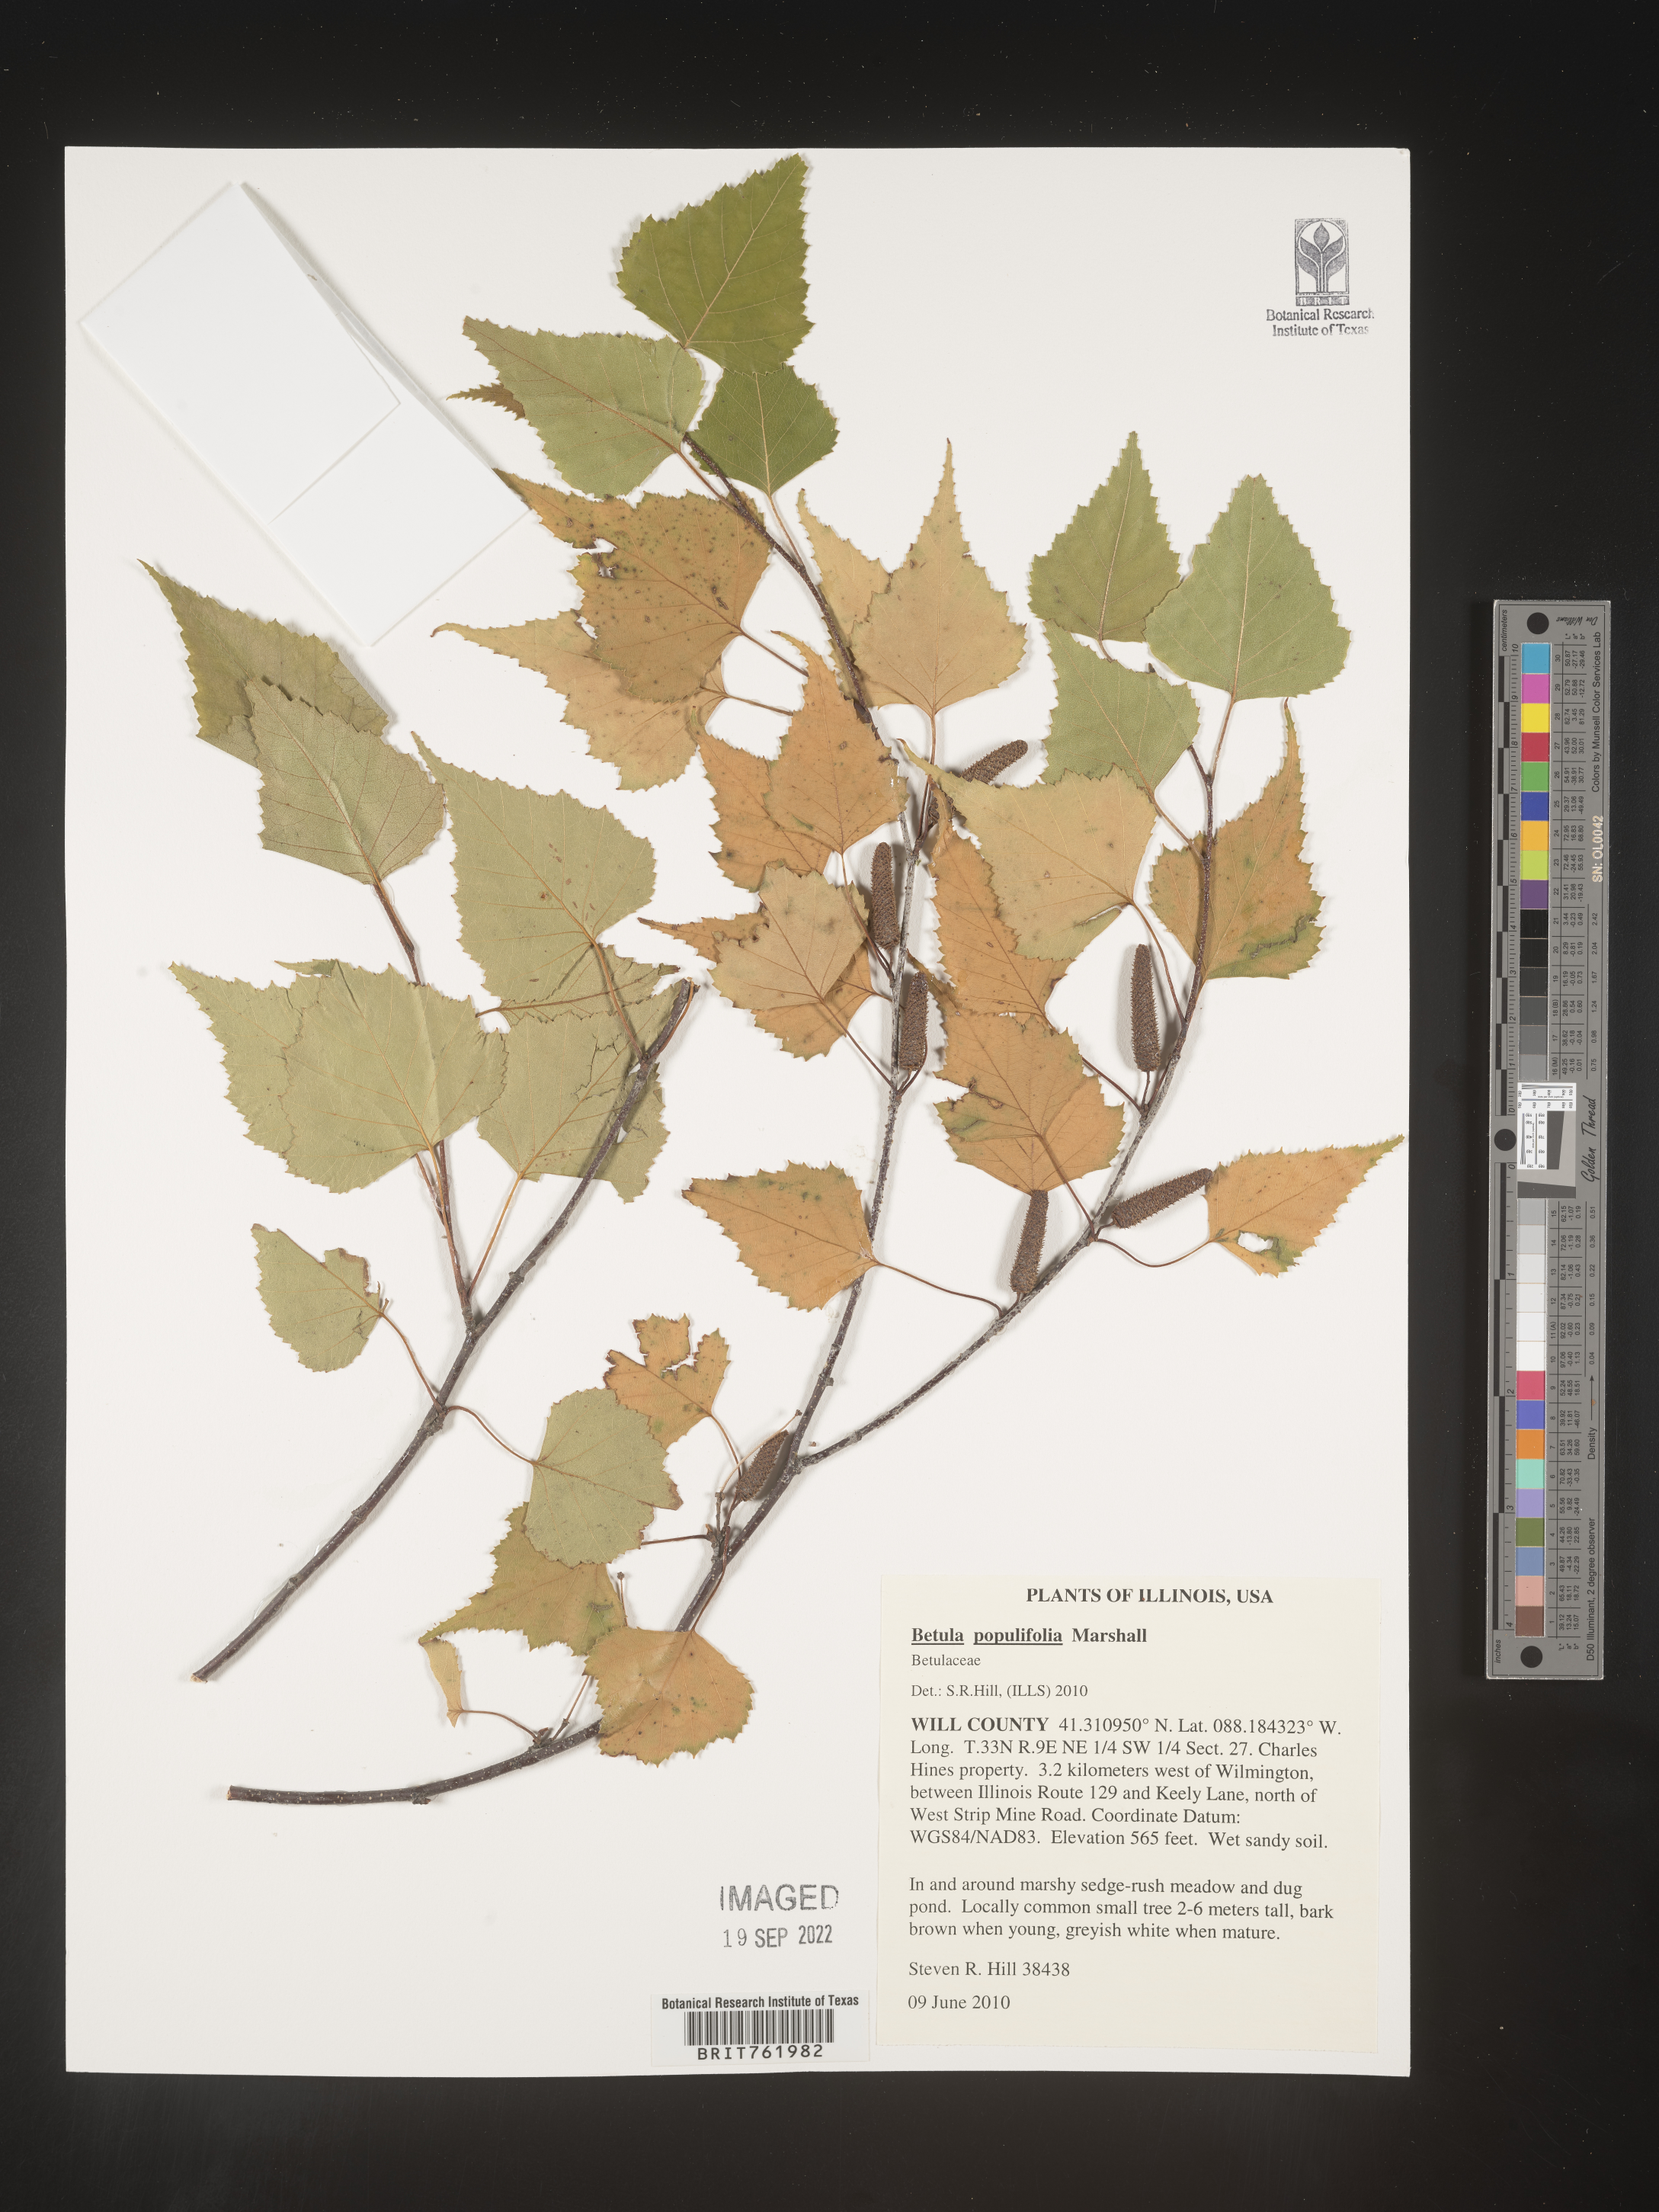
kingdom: Plantae
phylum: Tracheophyta
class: Magnoliopsida
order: Fagales
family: Betulaceae
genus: Betula
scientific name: Betula populifolia
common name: Fire birch
